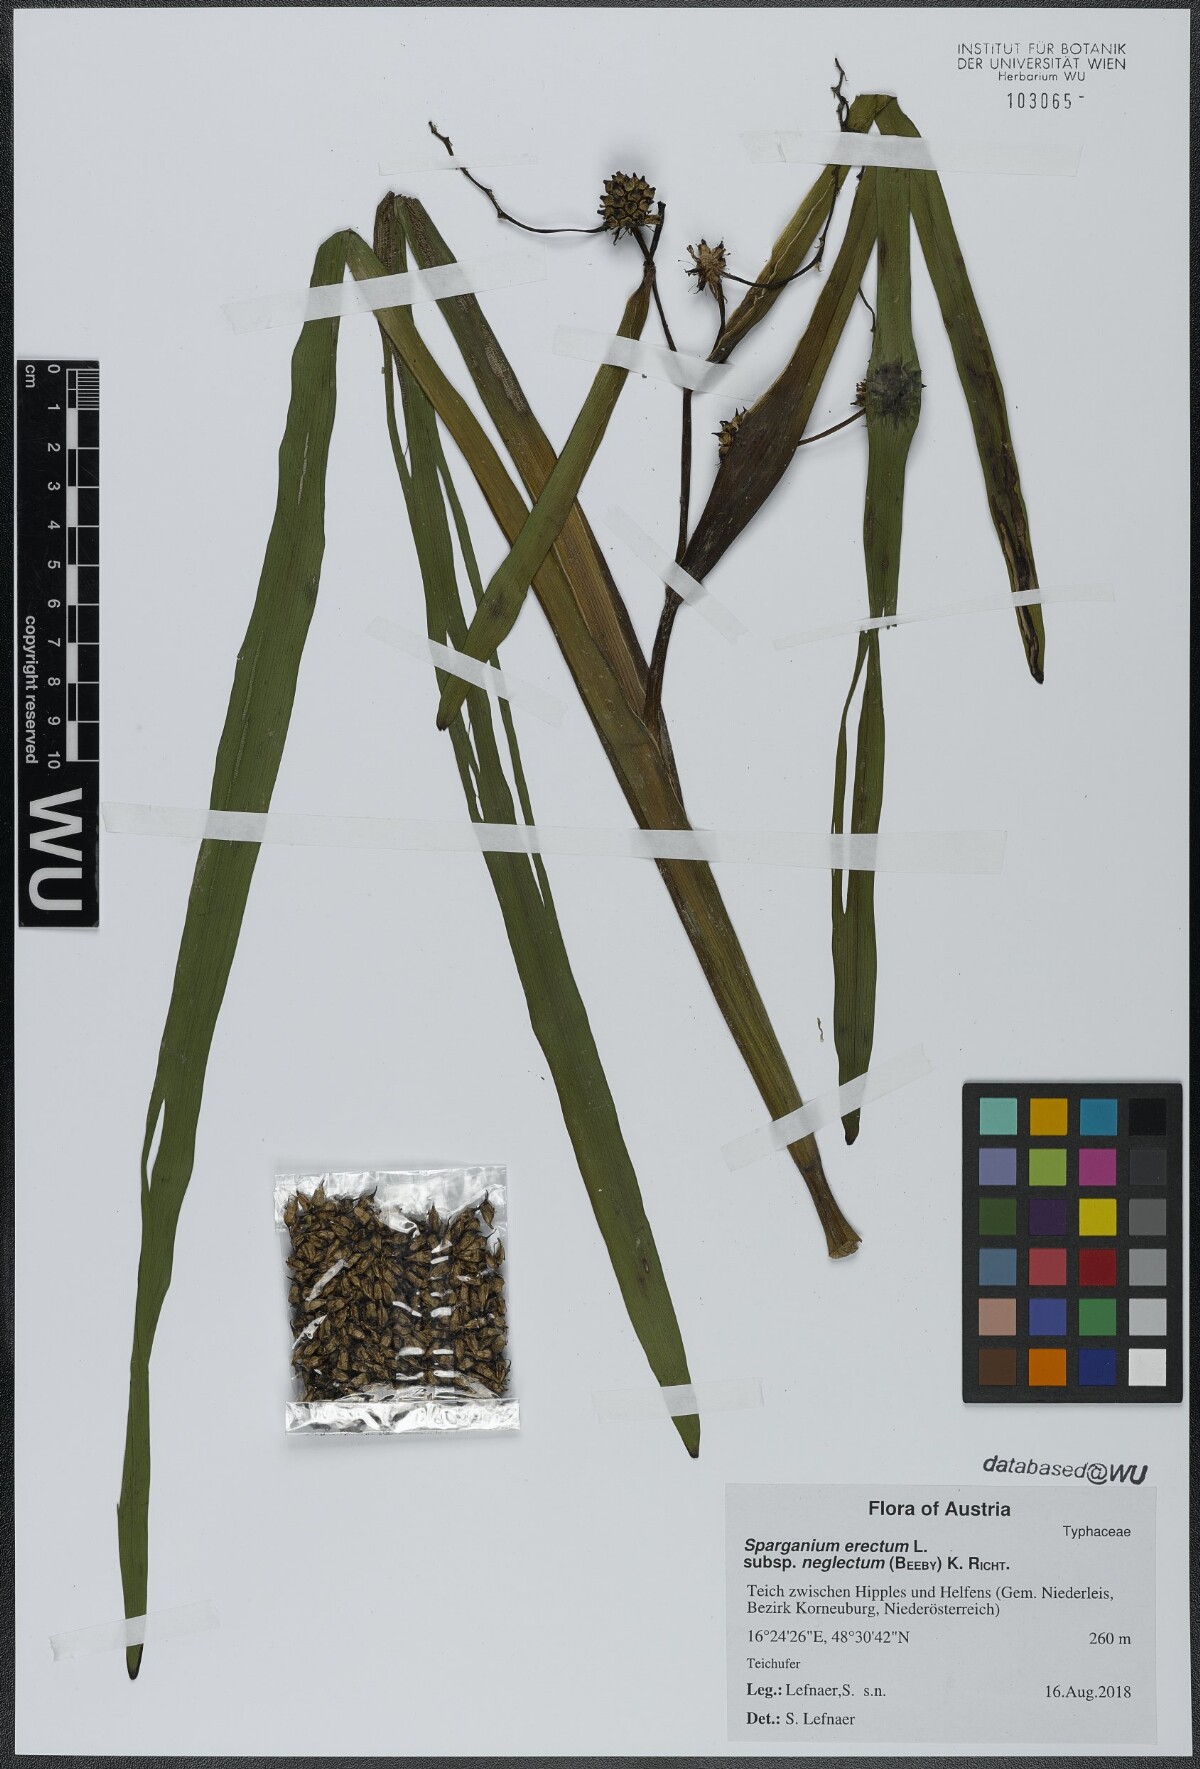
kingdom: Plantae
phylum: Tracheophyta
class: Liliopsida
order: Poales
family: Typhaceae
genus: Sparganium
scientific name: Sparganium erectum
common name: Branched bur-reed
